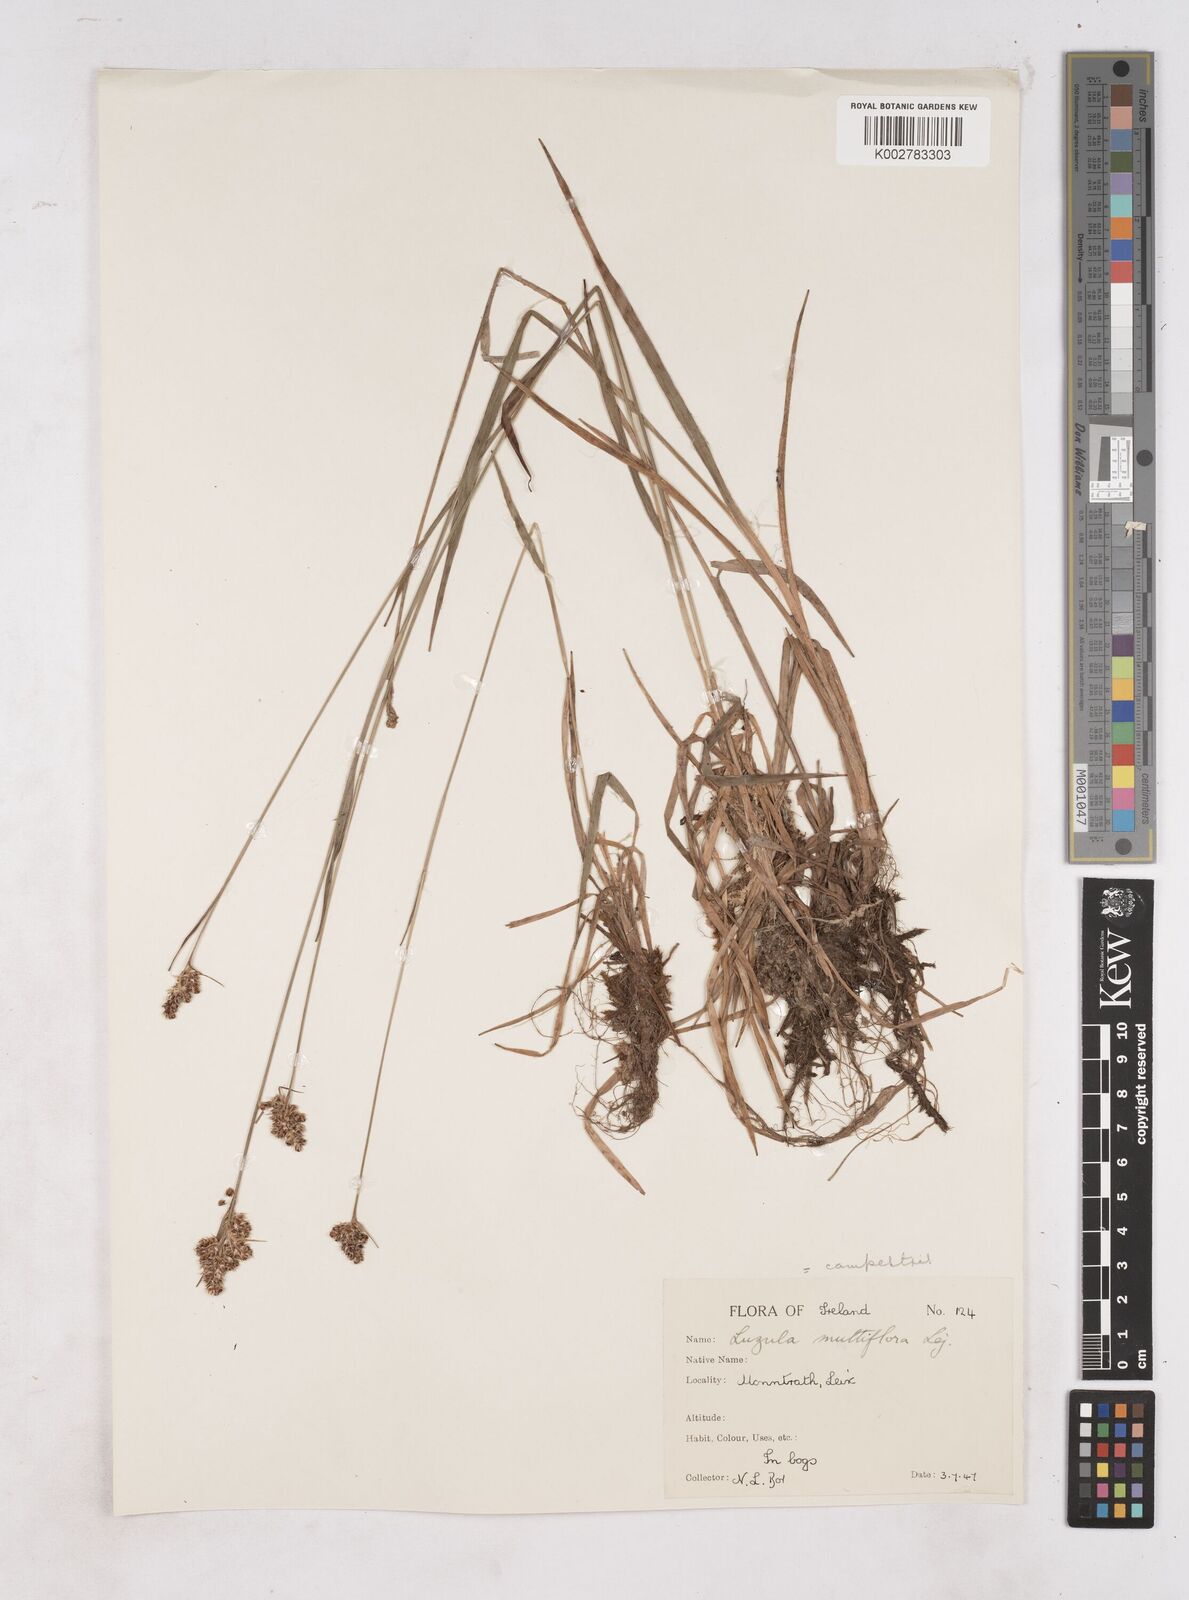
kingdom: Plantae
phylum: Tracheophyta
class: Liliopsida
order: Poales
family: Juncaceae
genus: Luzula
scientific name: Luzula multiflora
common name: Heath wood-rush
